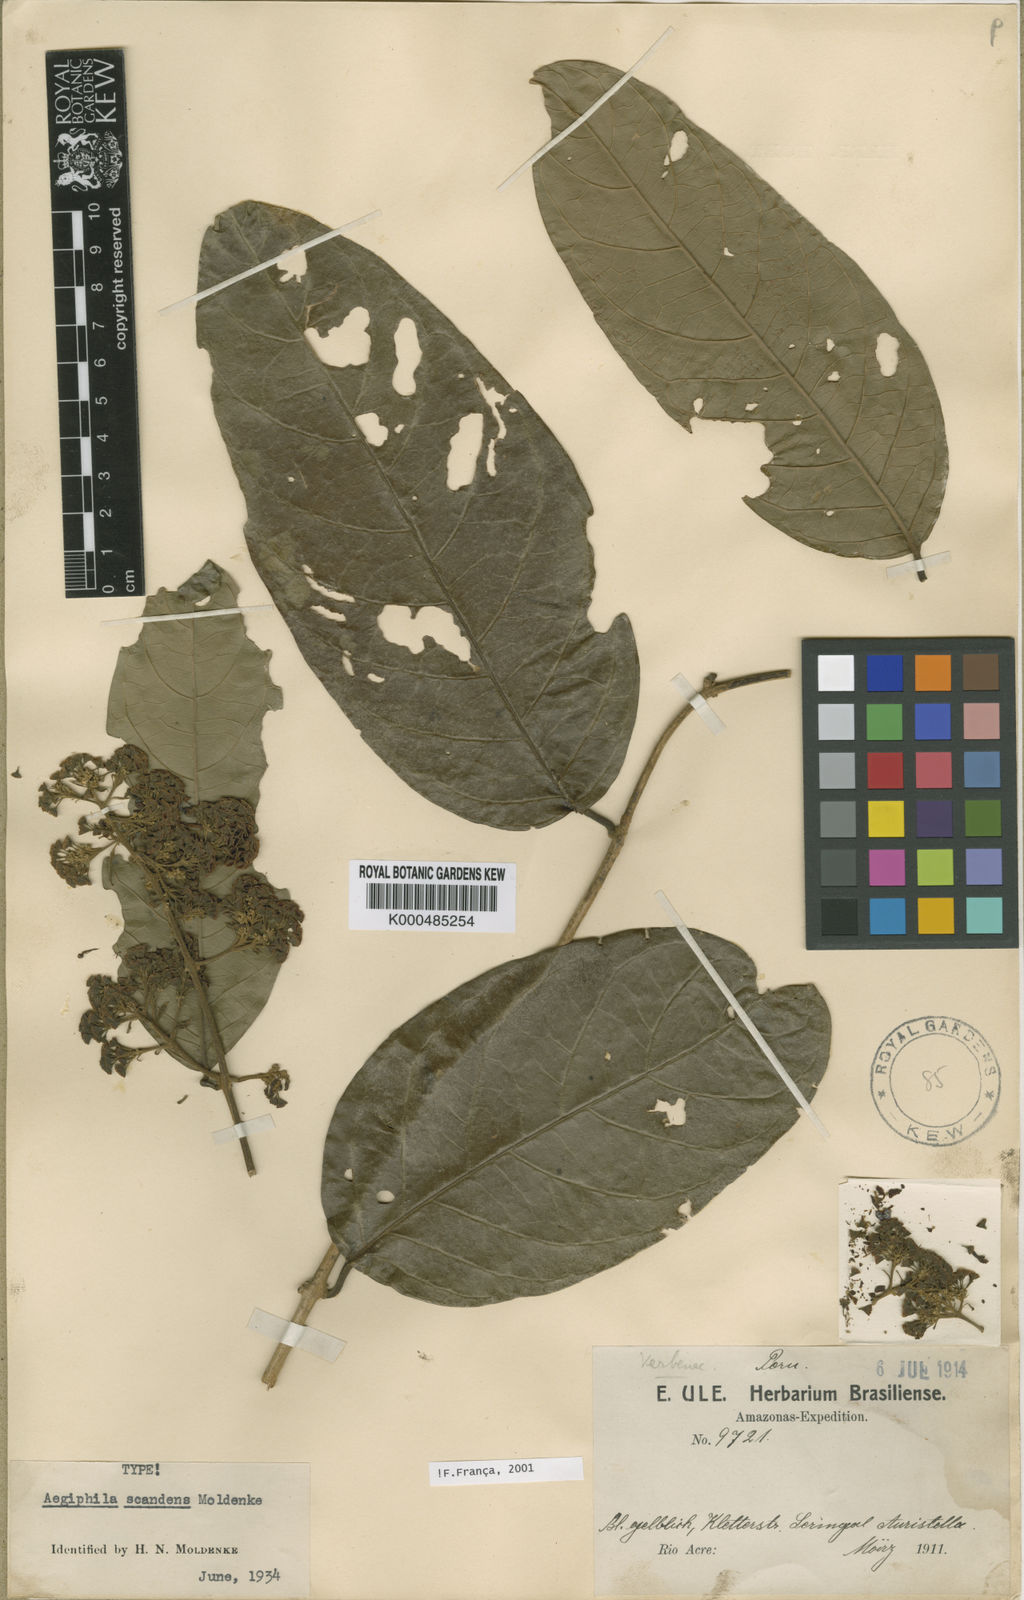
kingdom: Plantae
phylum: Tracheophyta
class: Magnoliopsida
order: Lamiales
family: Lamiaceae
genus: Aegiphila
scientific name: Aegiphila scandens
